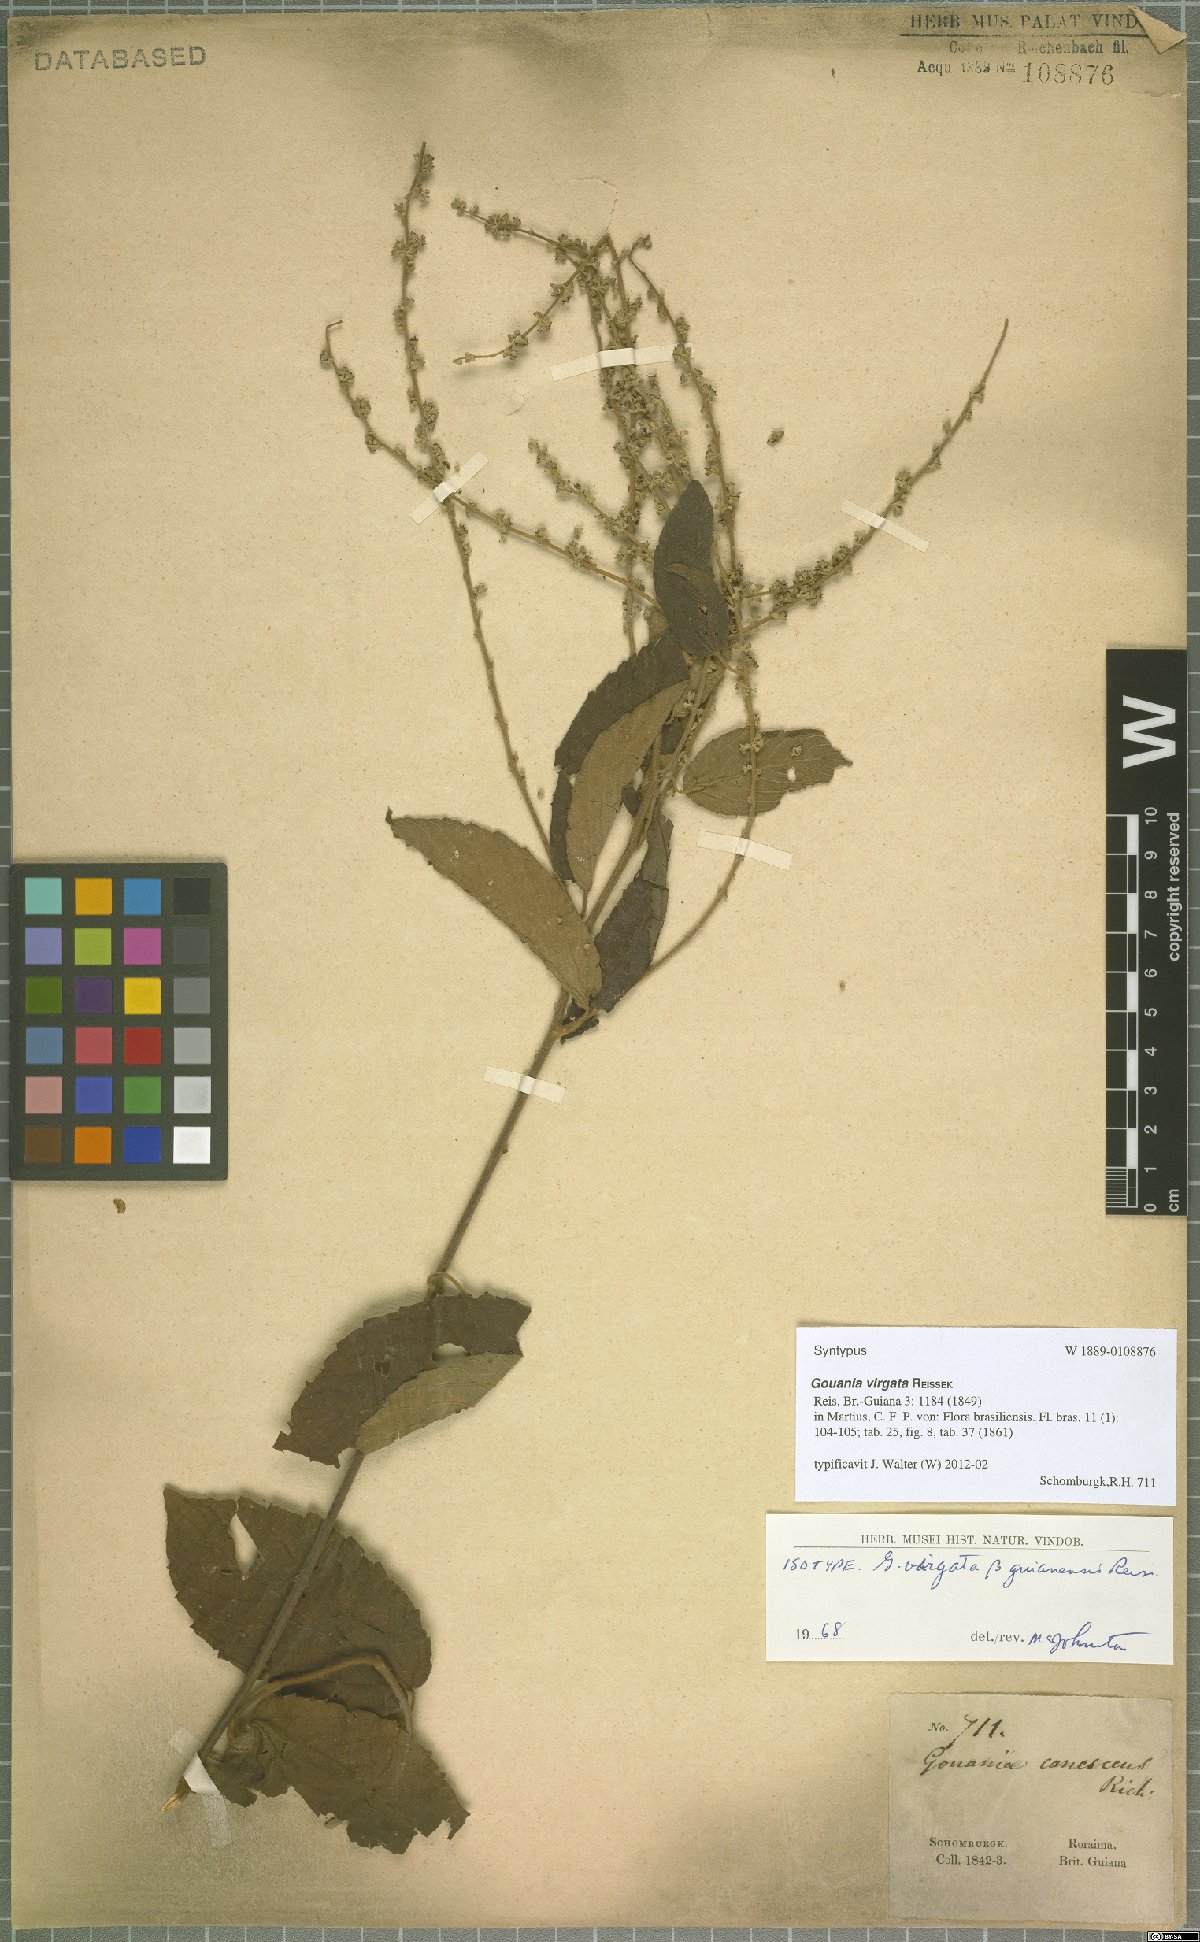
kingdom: Plantae
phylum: Tracheophyta
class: Magnoliopsida
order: Rosales
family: Rhamnaceae
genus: Gouania
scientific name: Gouania lupuloides
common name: Chewstick
